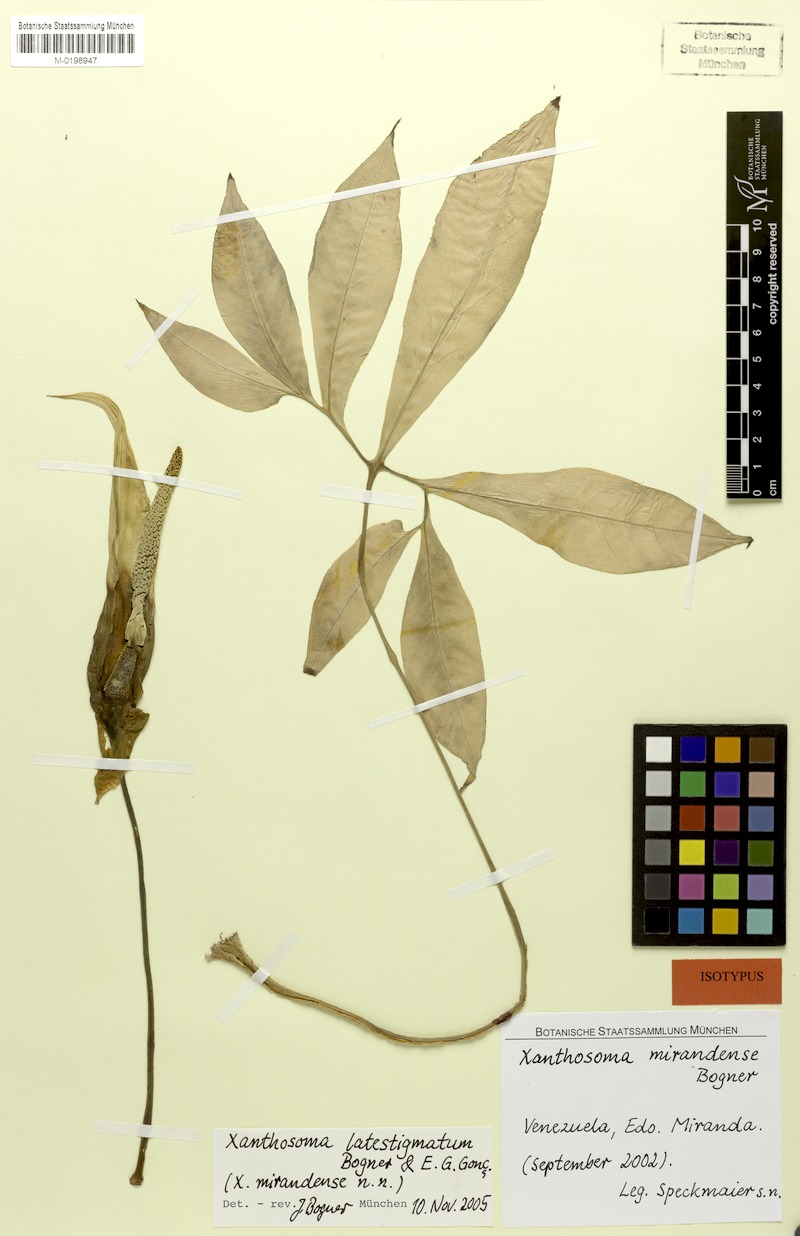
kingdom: Plantae
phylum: Tracheophyta
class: Liliopsida
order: Alismatales
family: Araceae
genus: Xanthosoma
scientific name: Xanthosoma latestigmatum
